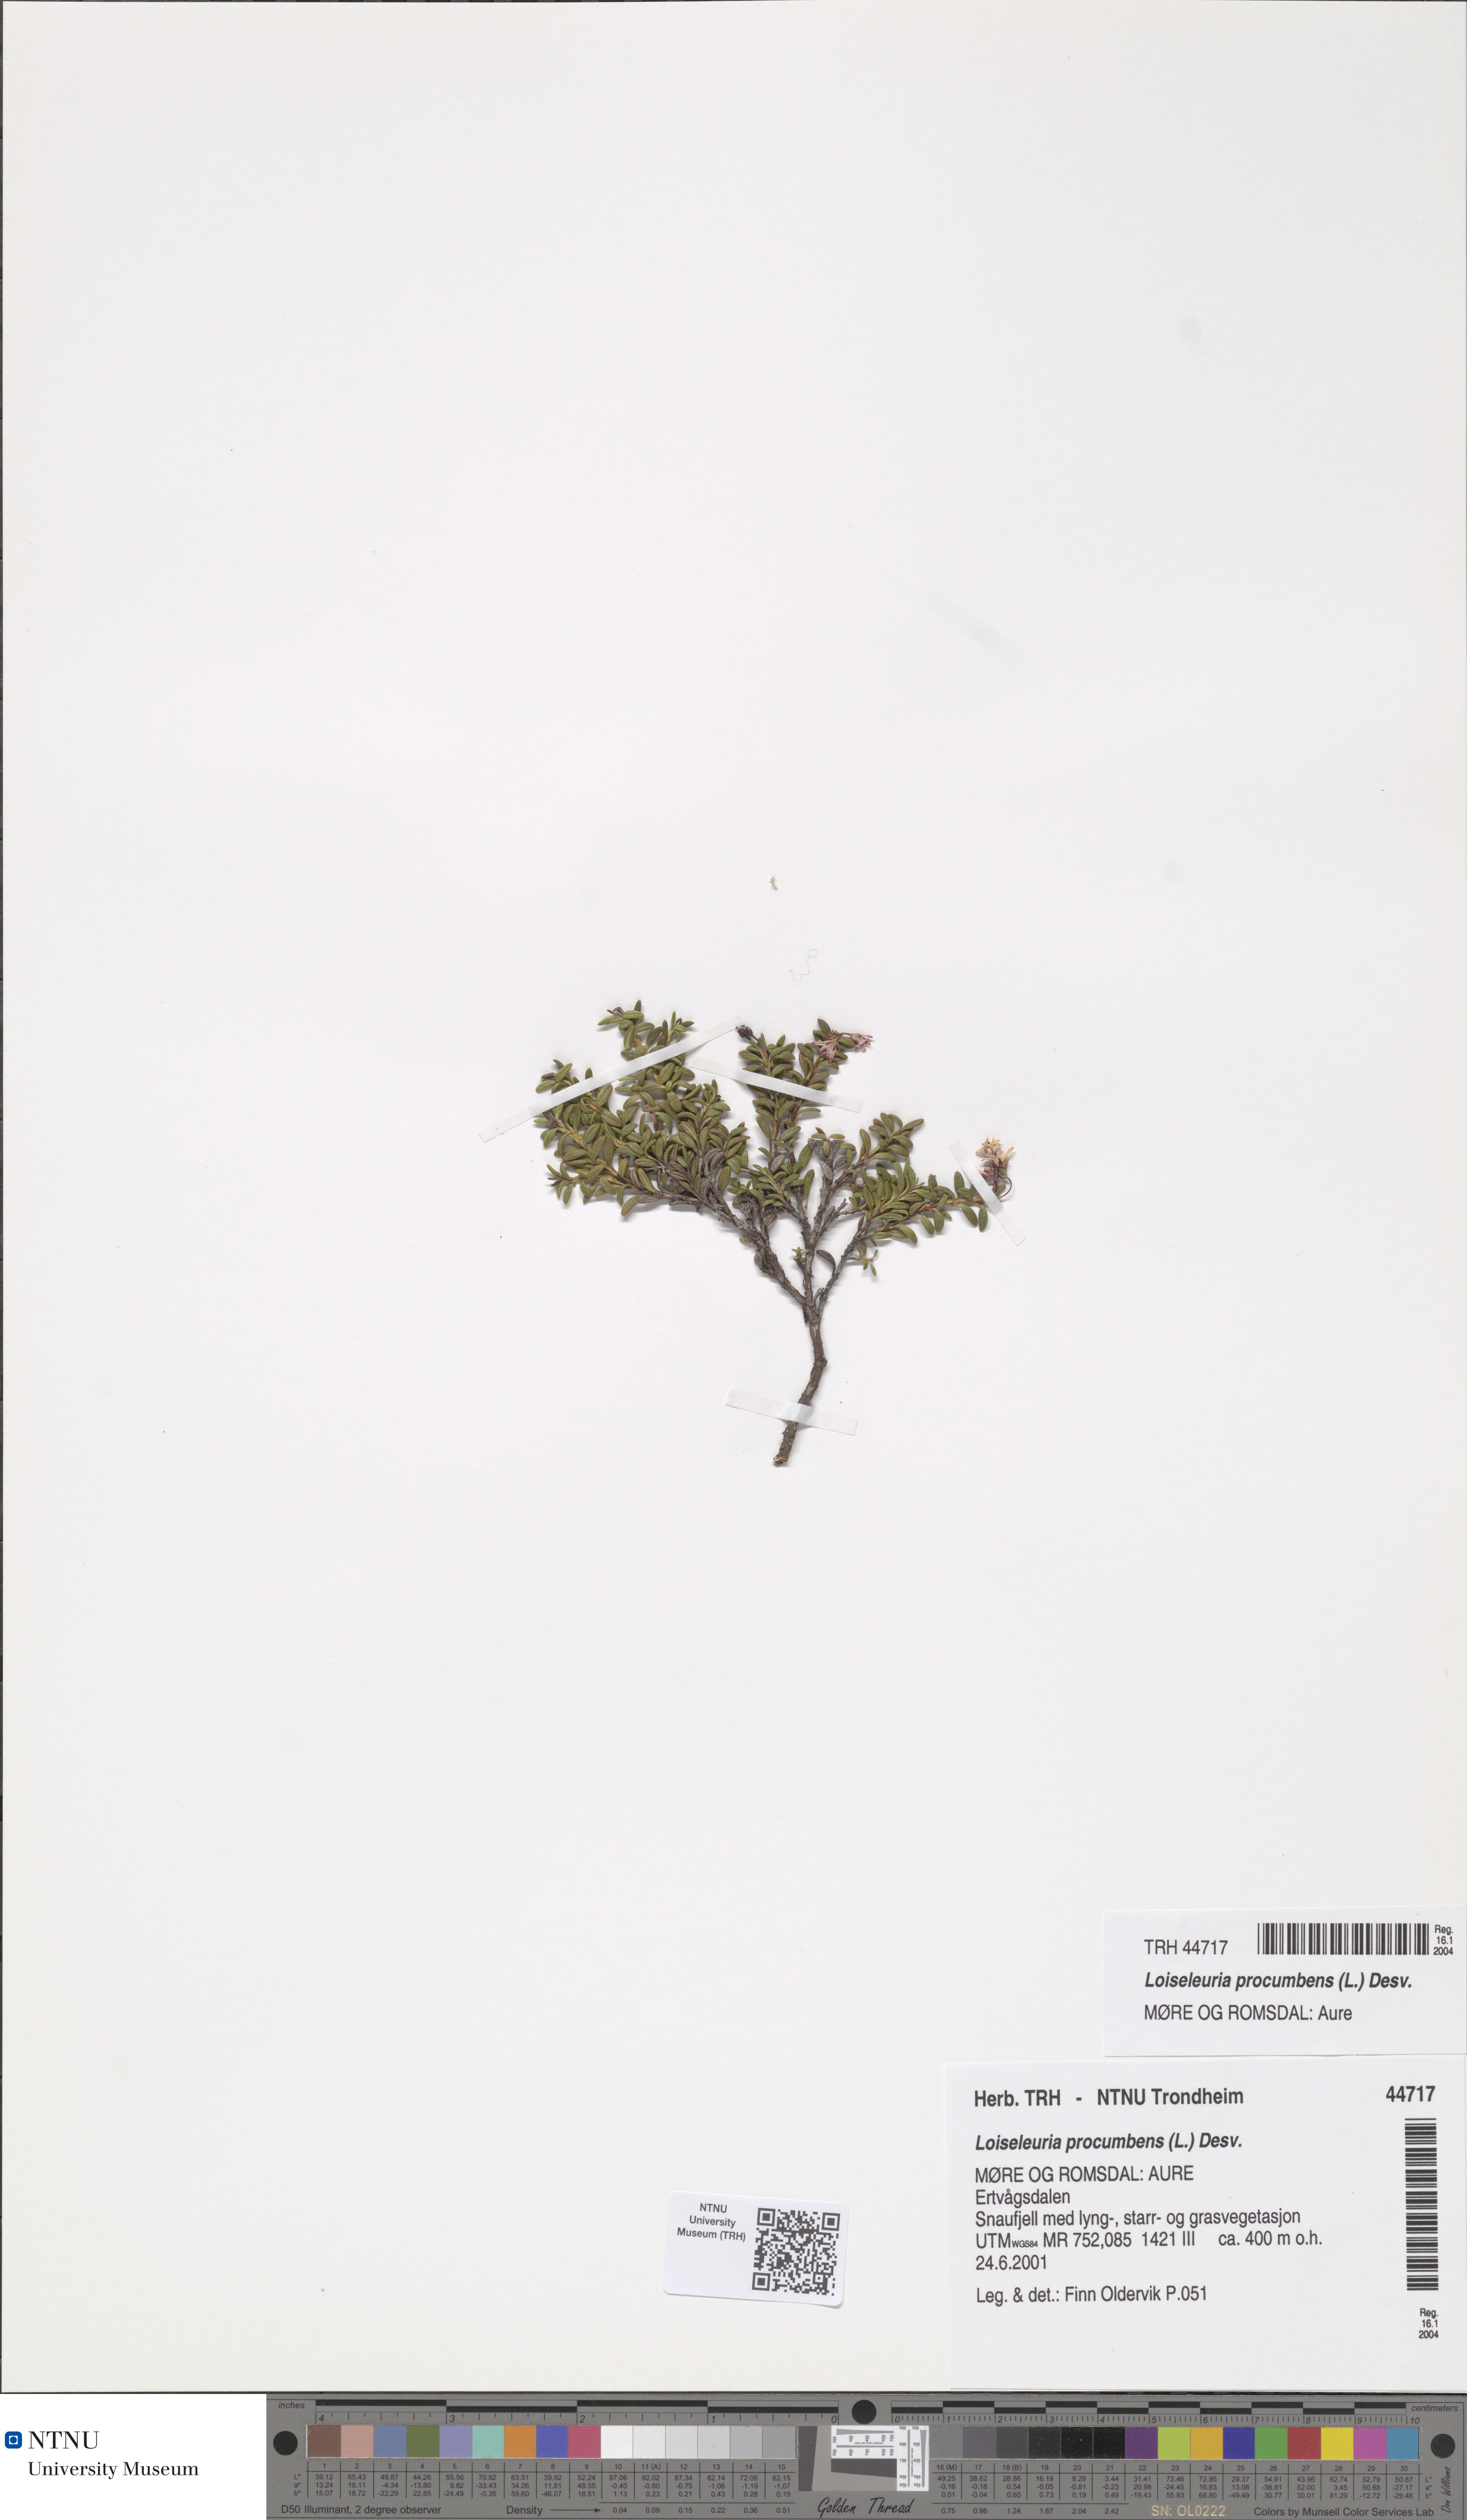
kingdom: Plantae
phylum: Tracheophyta
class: Magnoliopsida
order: Ericales
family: Ericaceae
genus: Kalmia
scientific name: Kalmia procumbens
